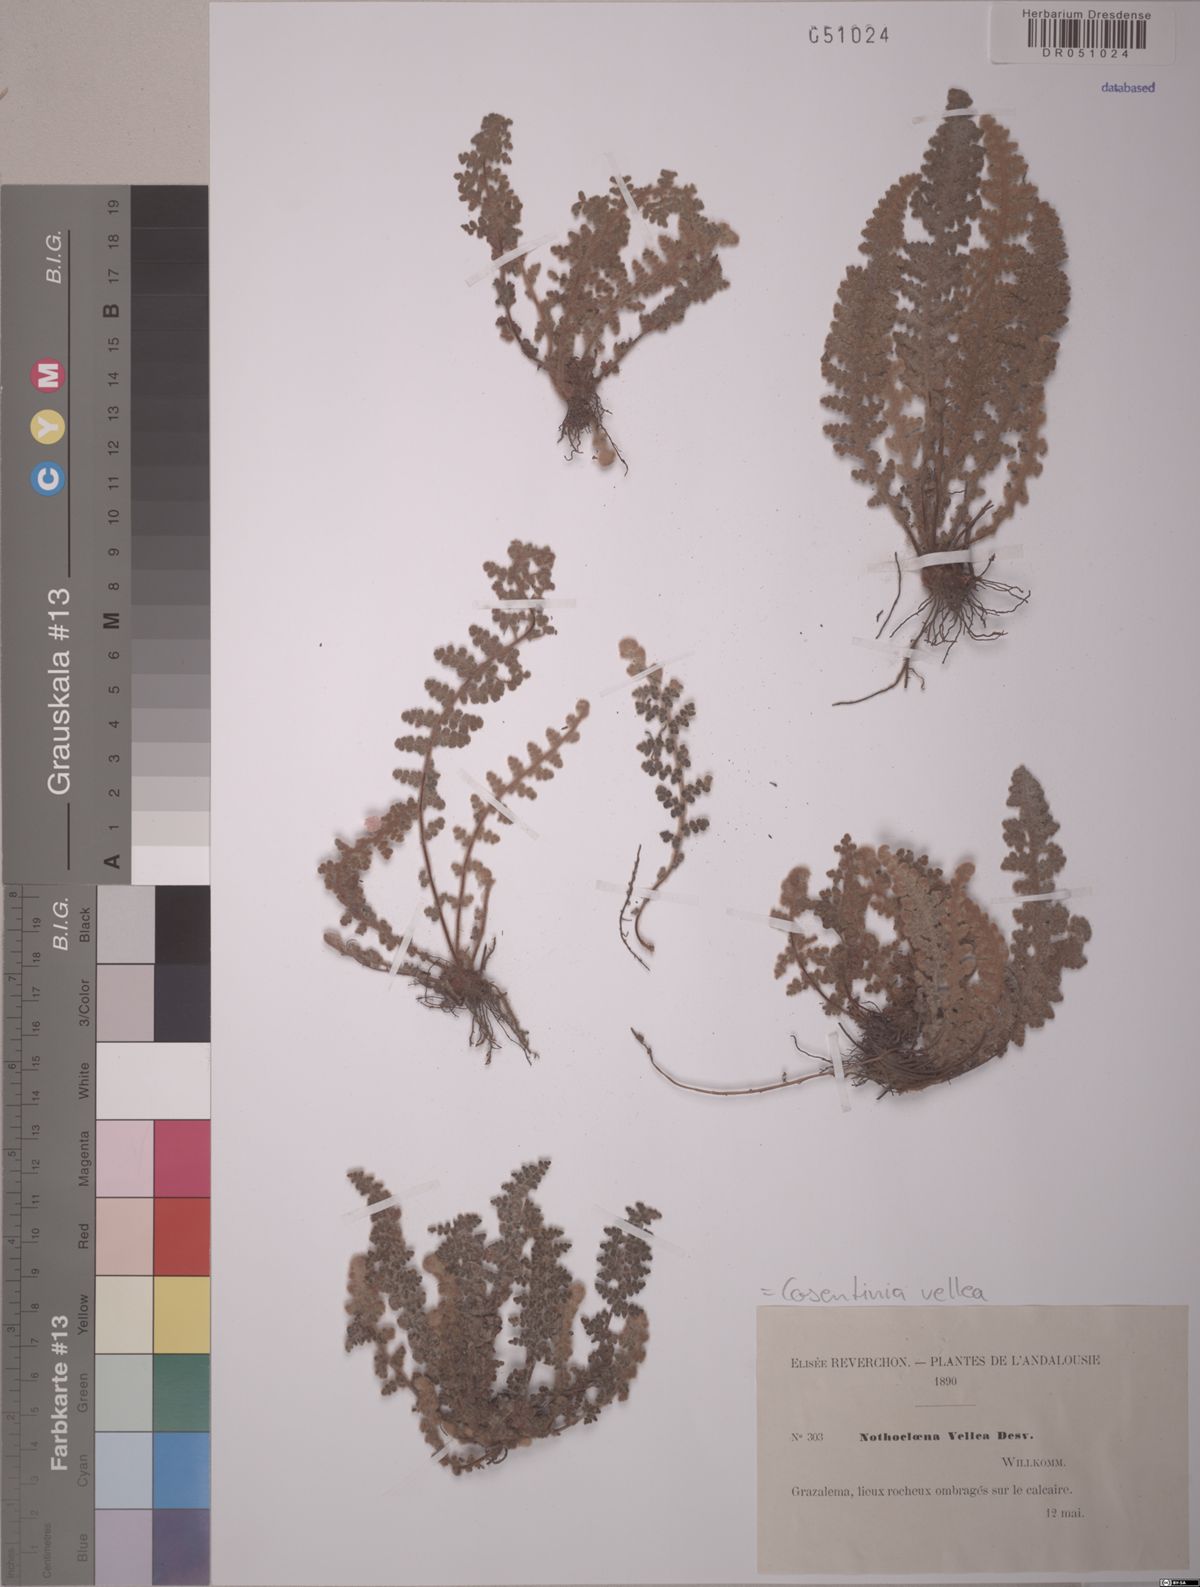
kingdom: Plantae
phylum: Tracheophyta
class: Polypodiopsida
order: Polypodiales
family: Pteridaceae
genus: Cosentinia
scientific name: Cosentinia vellea
